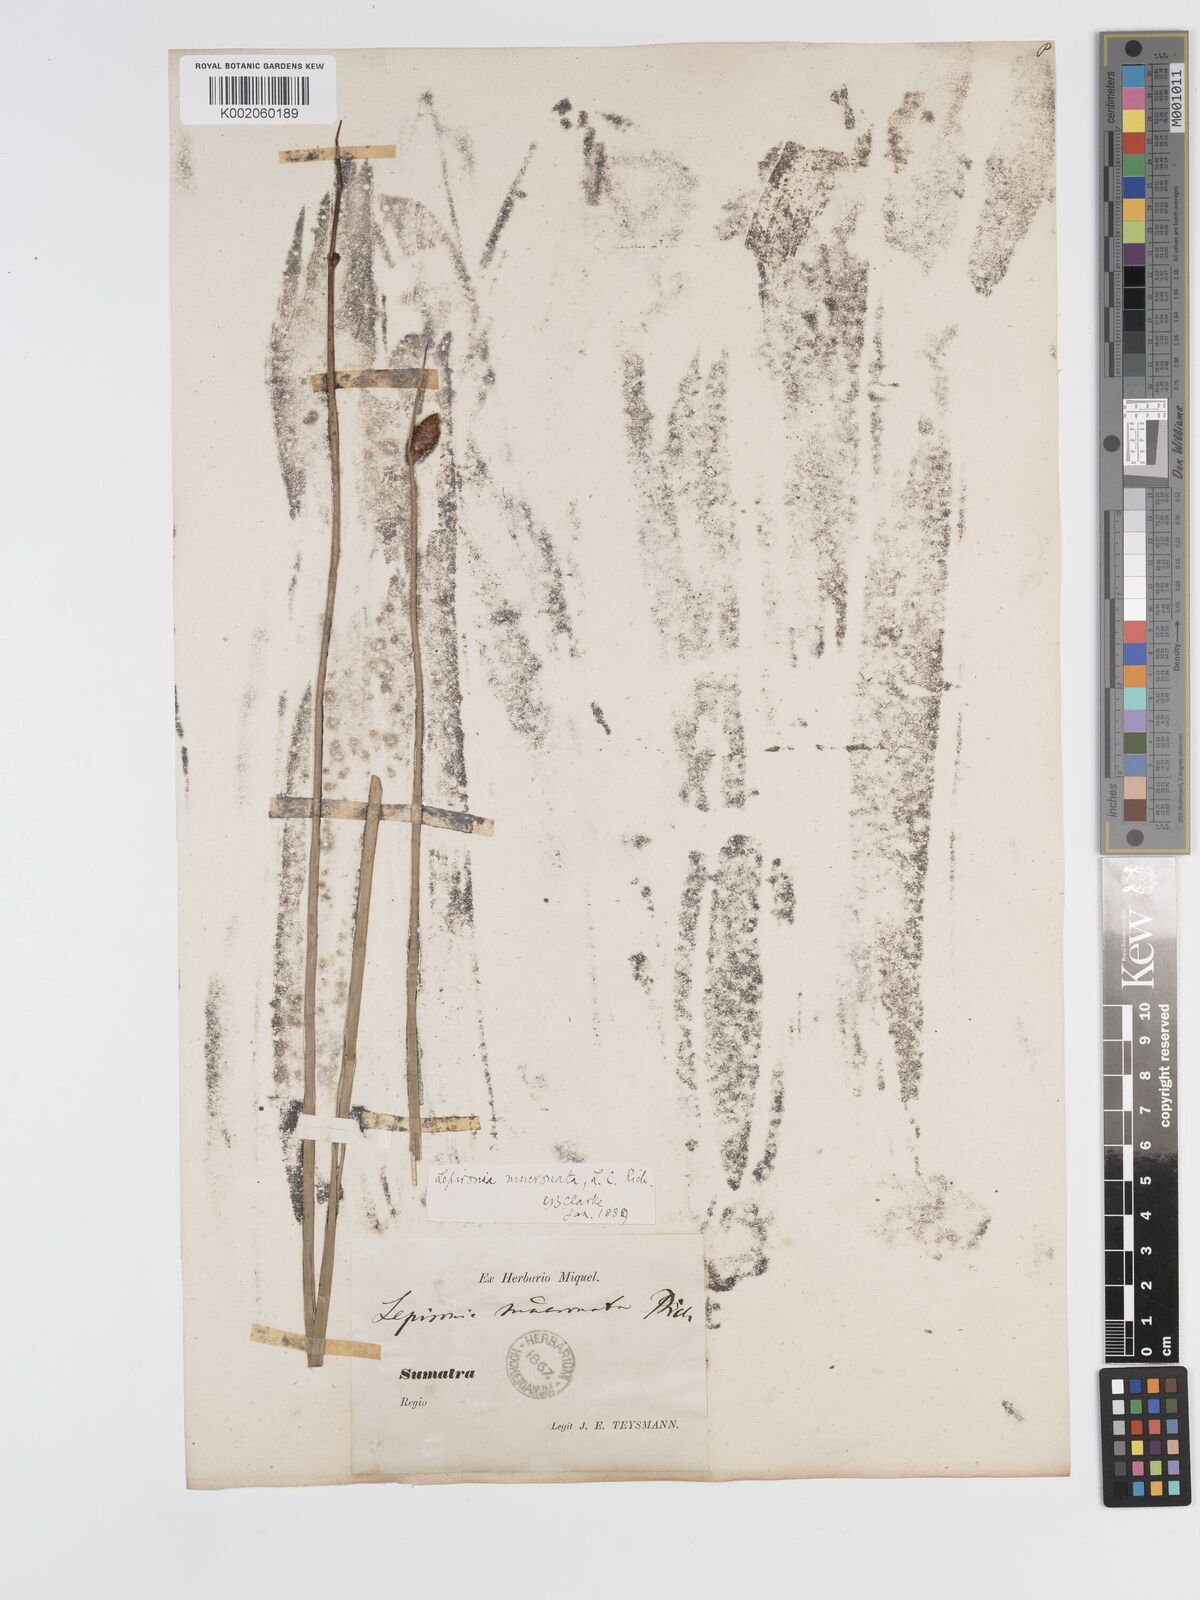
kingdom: Plantae
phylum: Tracheophyta
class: Liliopsida
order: Poales
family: Cyperaceae
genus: Lepironia
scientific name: Lepironia articulata
